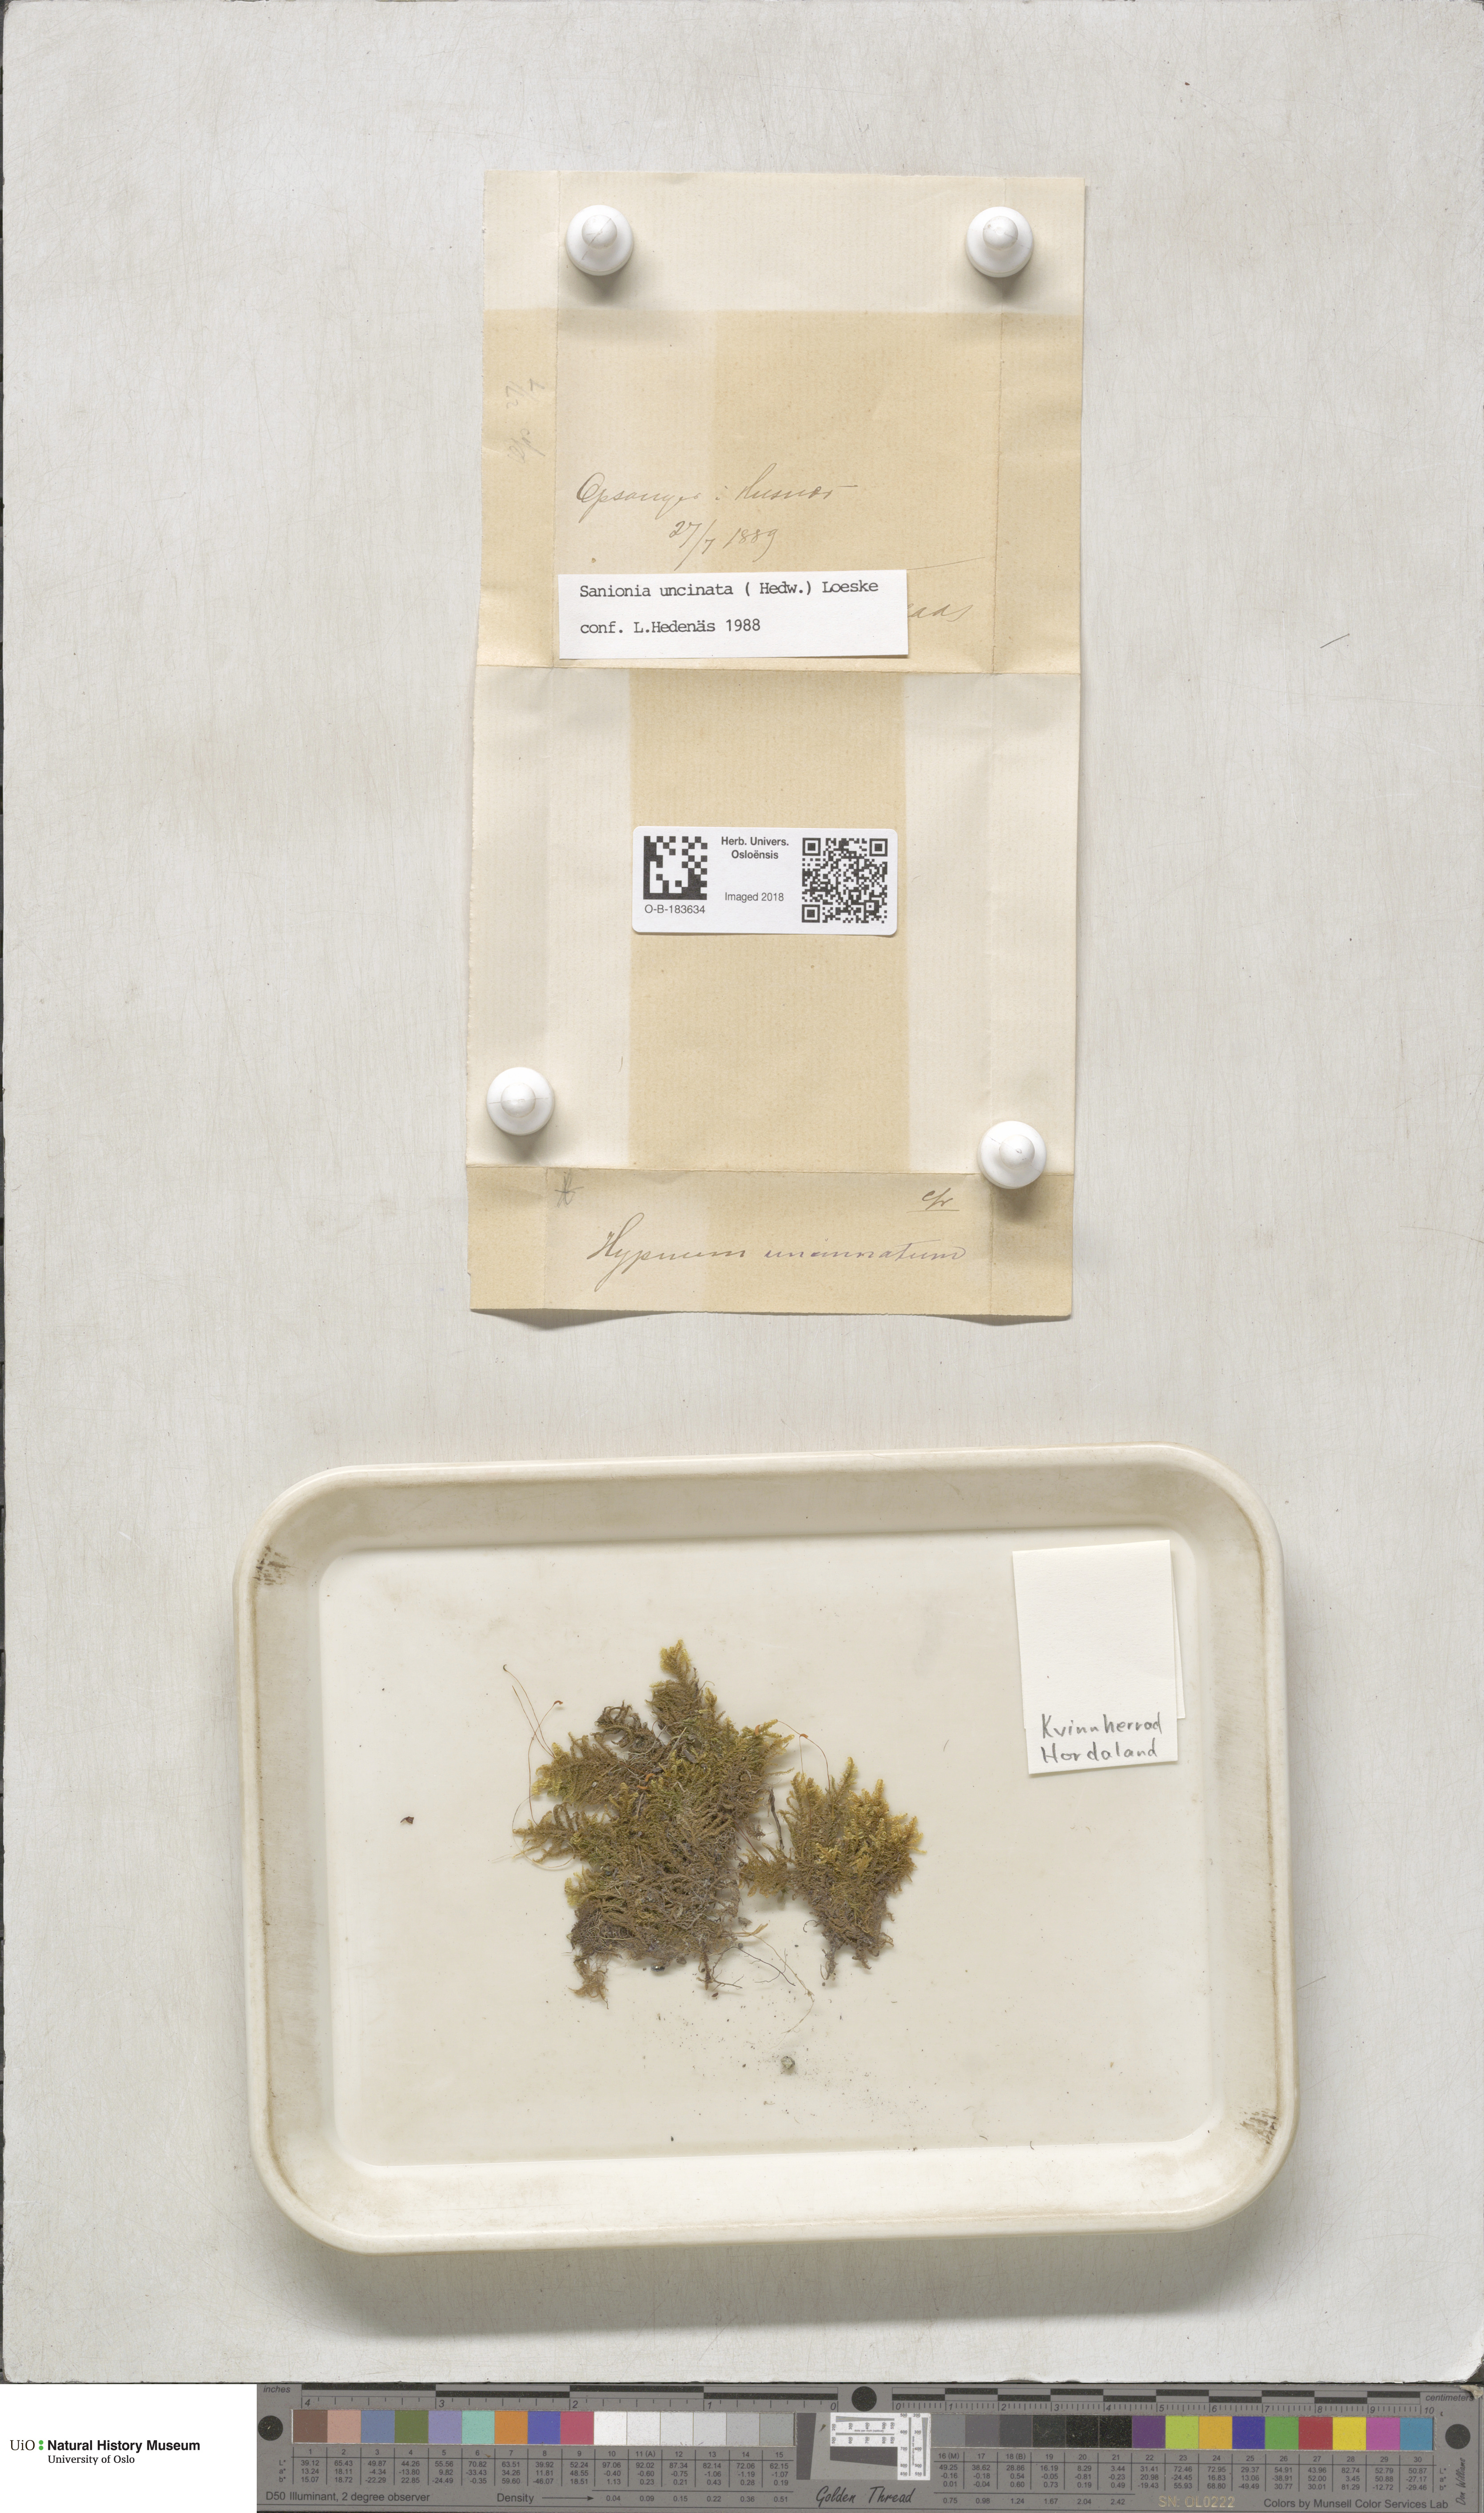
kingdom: Plantae
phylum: Bryophyta
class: Bryopsida
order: Hypnales
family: Scorpidiaceae
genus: Sanionia
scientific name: Sanionia uncinata
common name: Sickle moss
